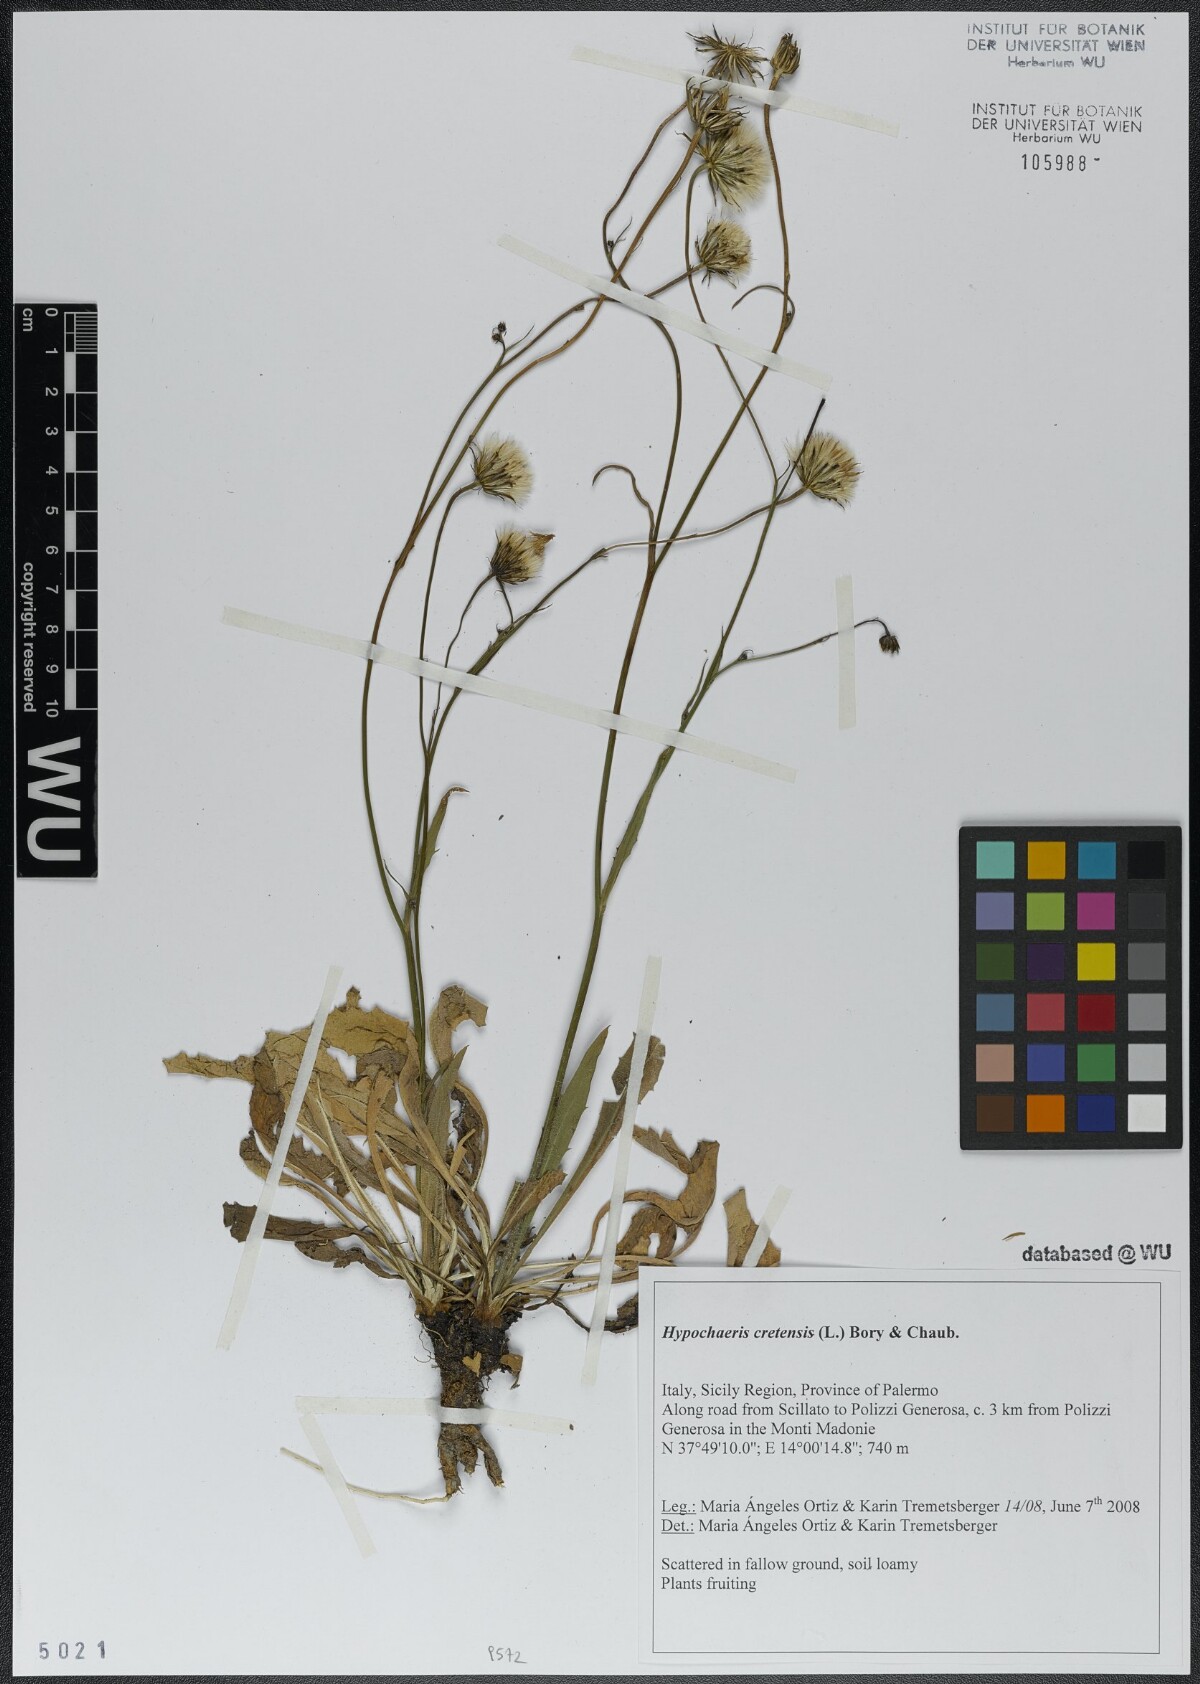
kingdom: Plantae
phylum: Tracheophyta
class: Magnoliopsida
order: Asterales
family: Asteraceae
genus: Hypochaeris
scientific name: Hypochaeris cretensis
